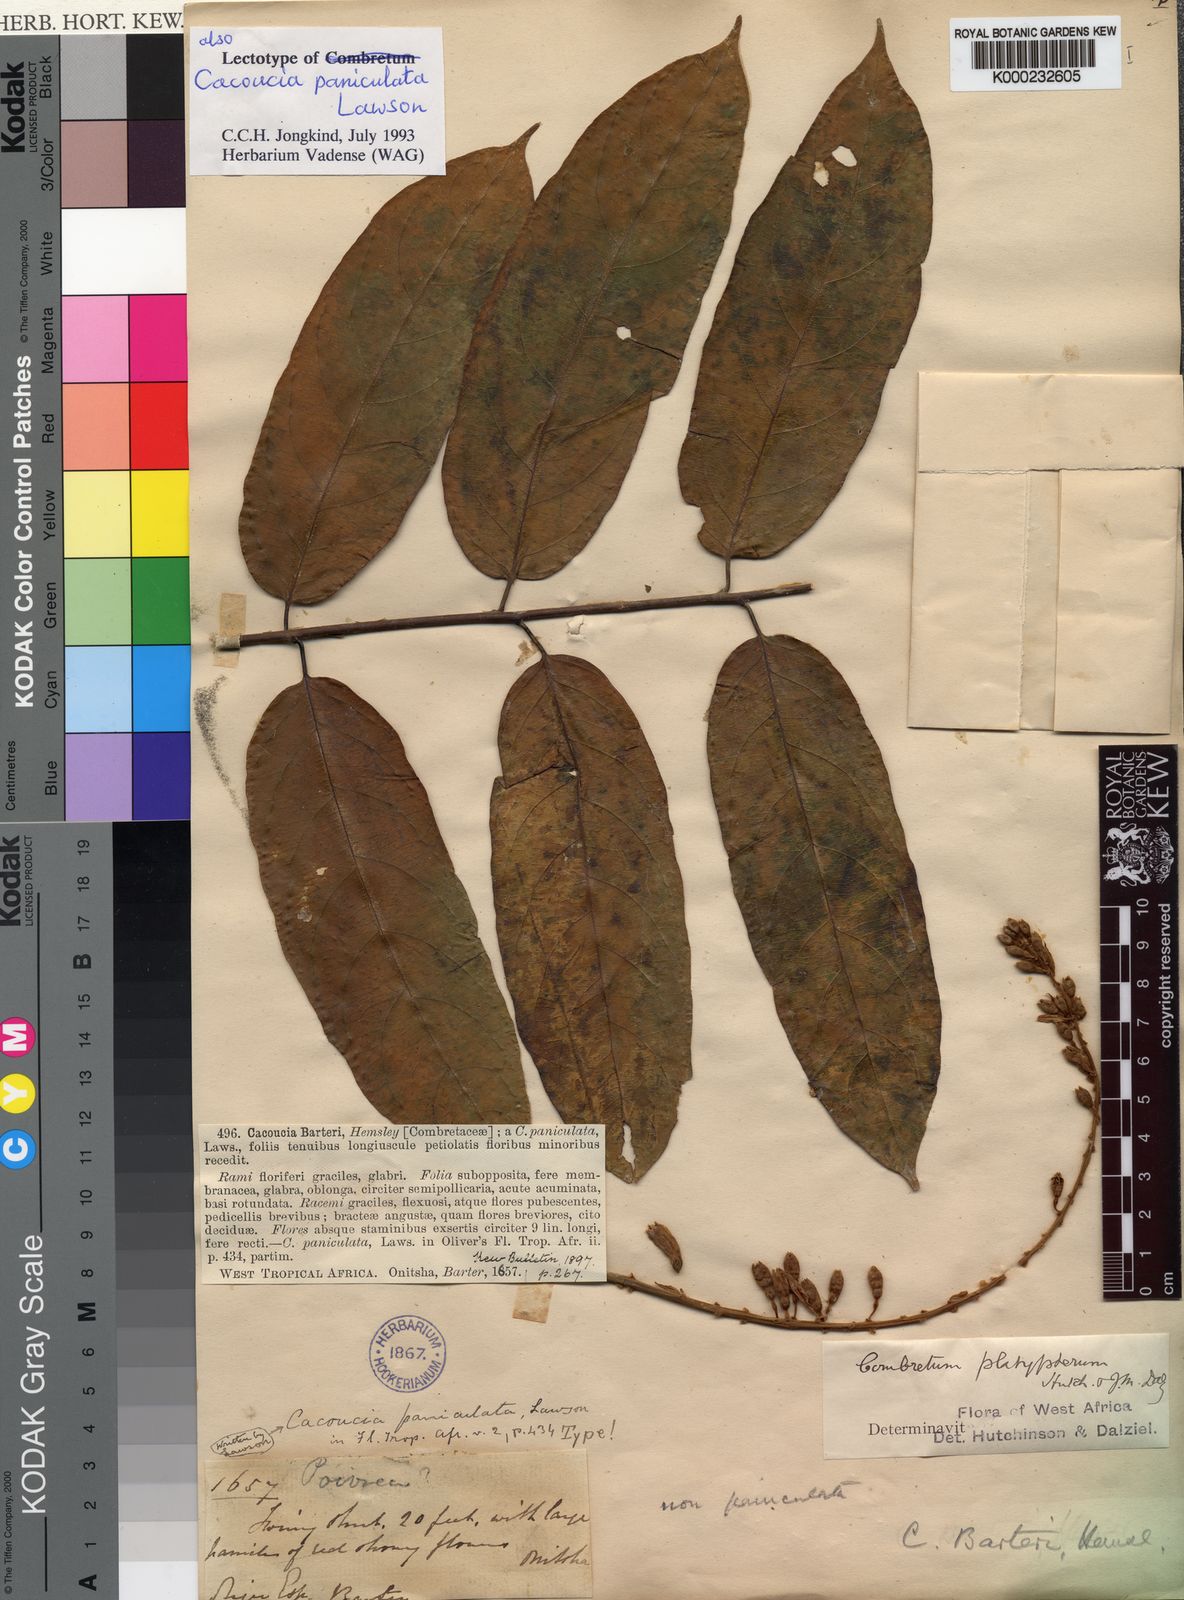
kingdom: Plantae
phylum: Tracheophyta
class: Magnoliopsida
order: Myrtales
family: Combretaceae
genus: Combretum
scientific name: Combretum platypterum
